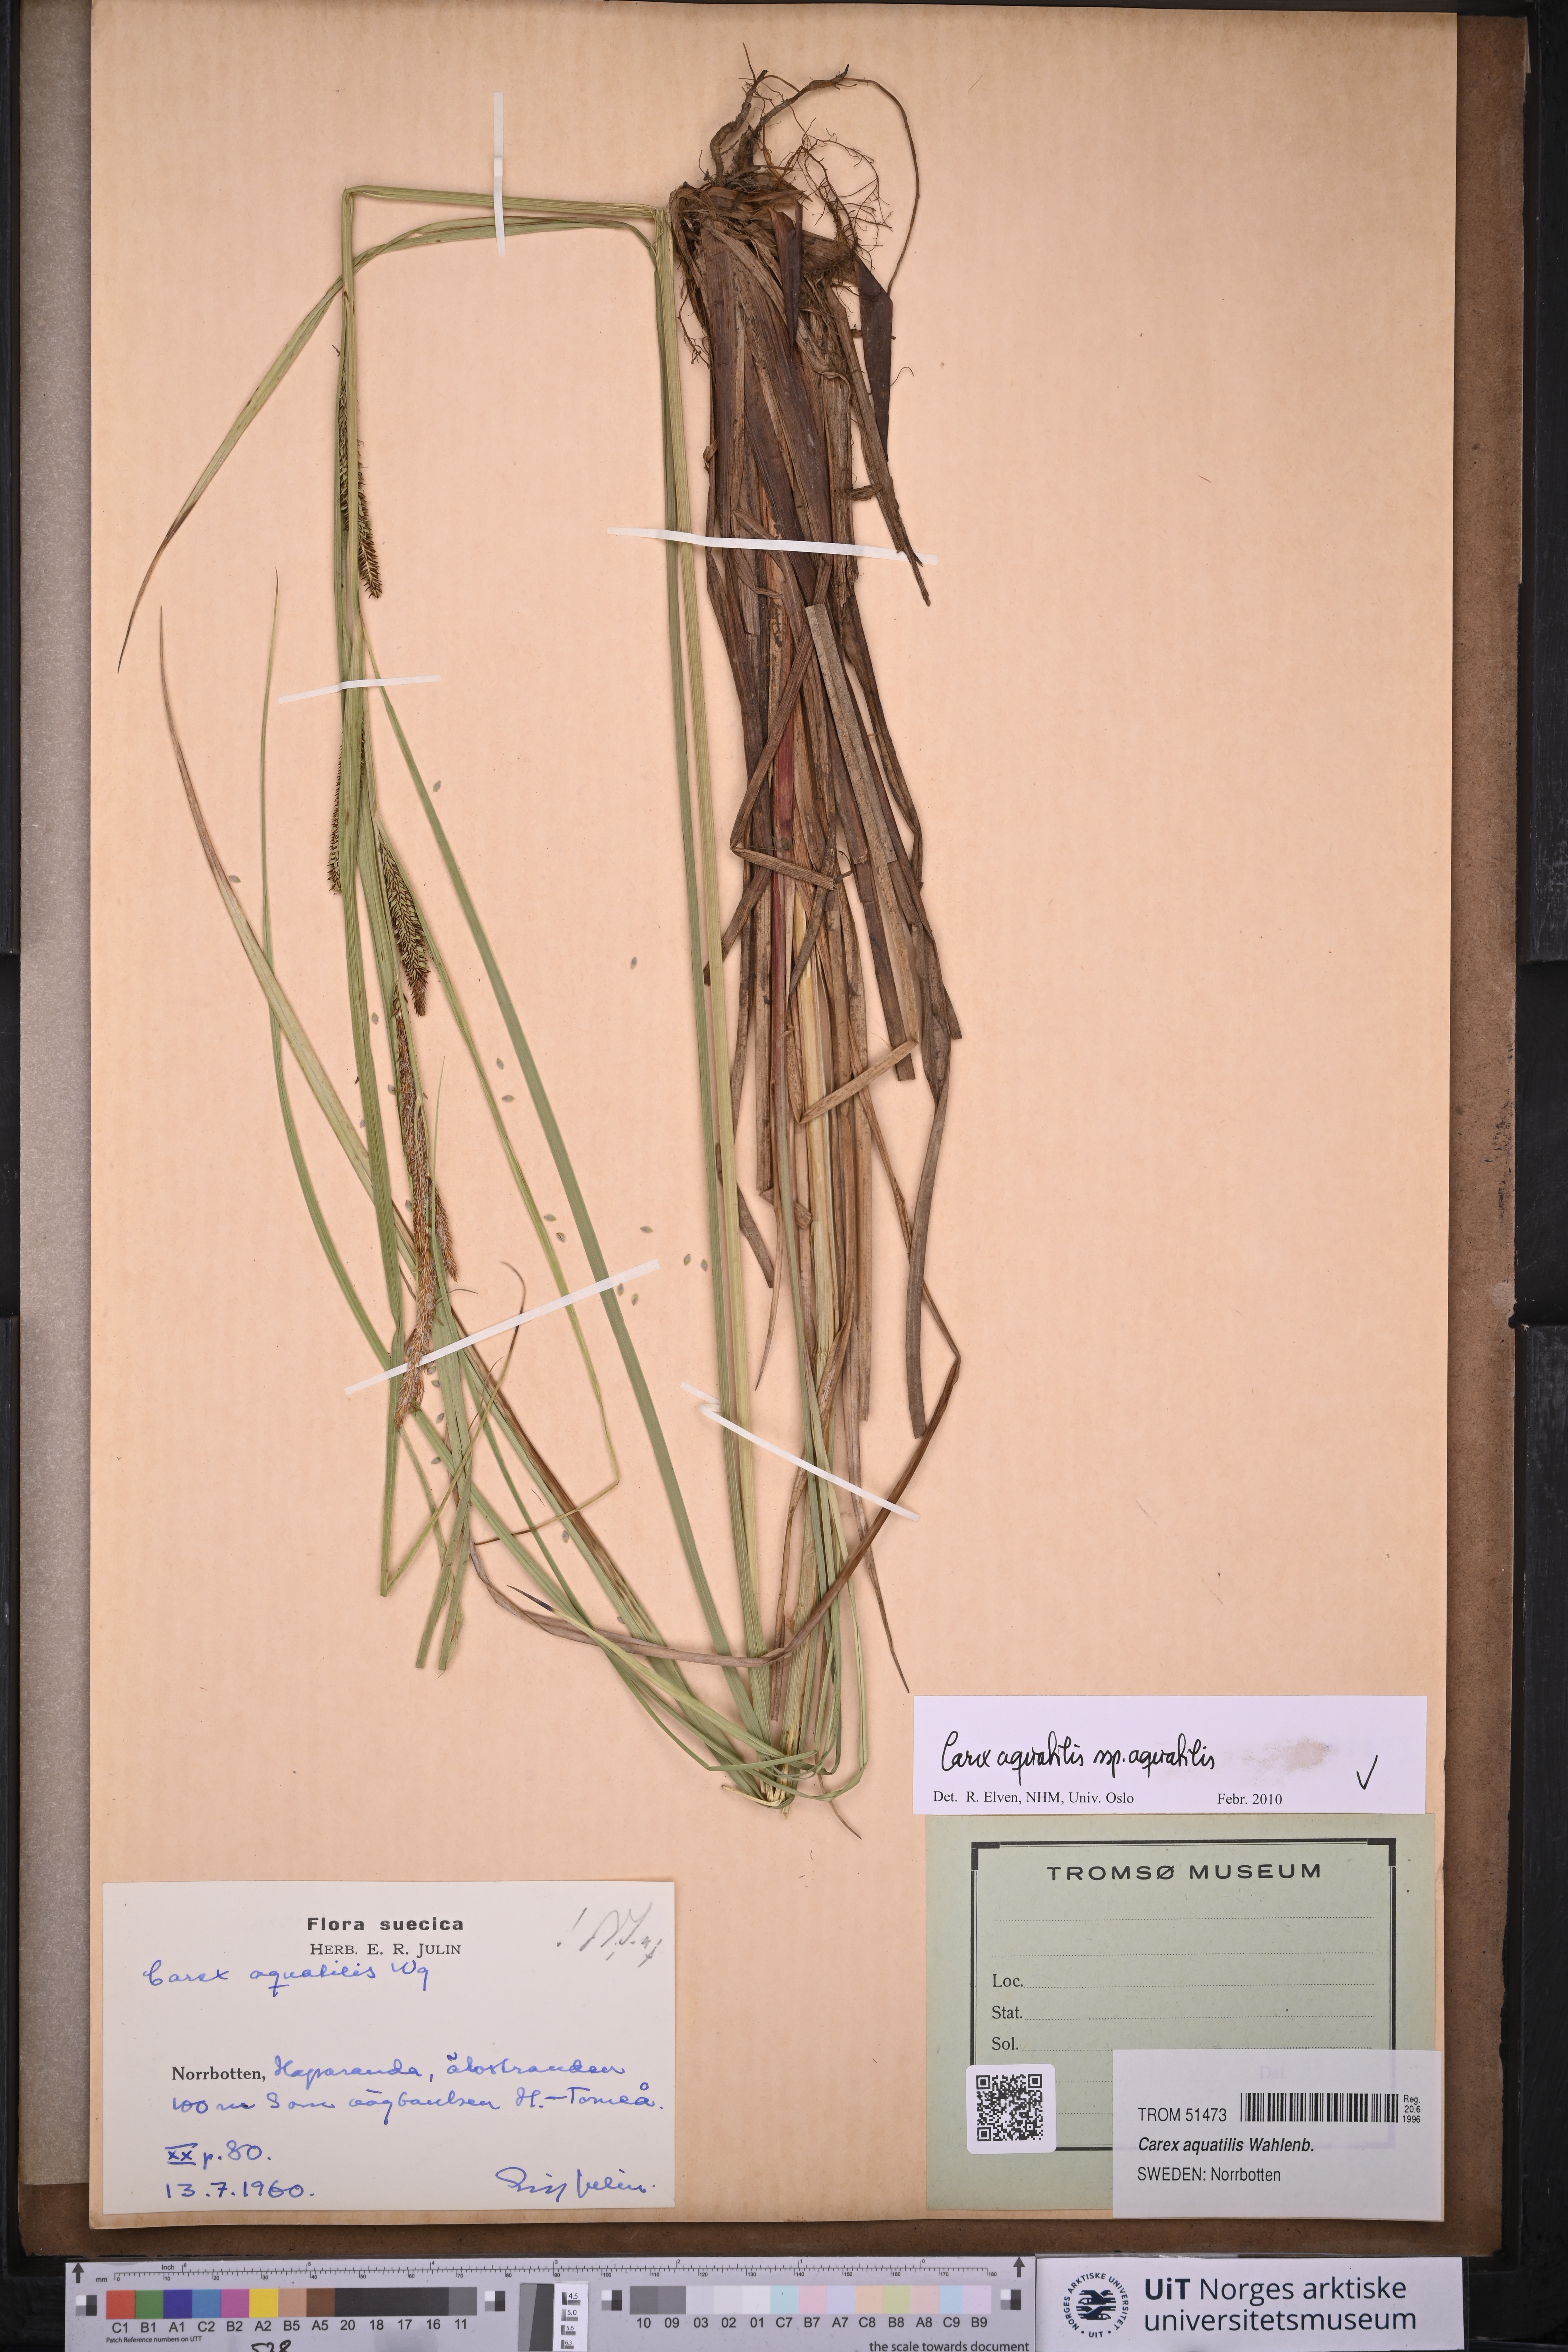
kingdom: Plantae
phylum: Tracheophyta
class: Liliopsida
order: Poales
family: Cyperaceae
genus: Carex
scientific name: Carex aquatilis
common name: Water sedge
